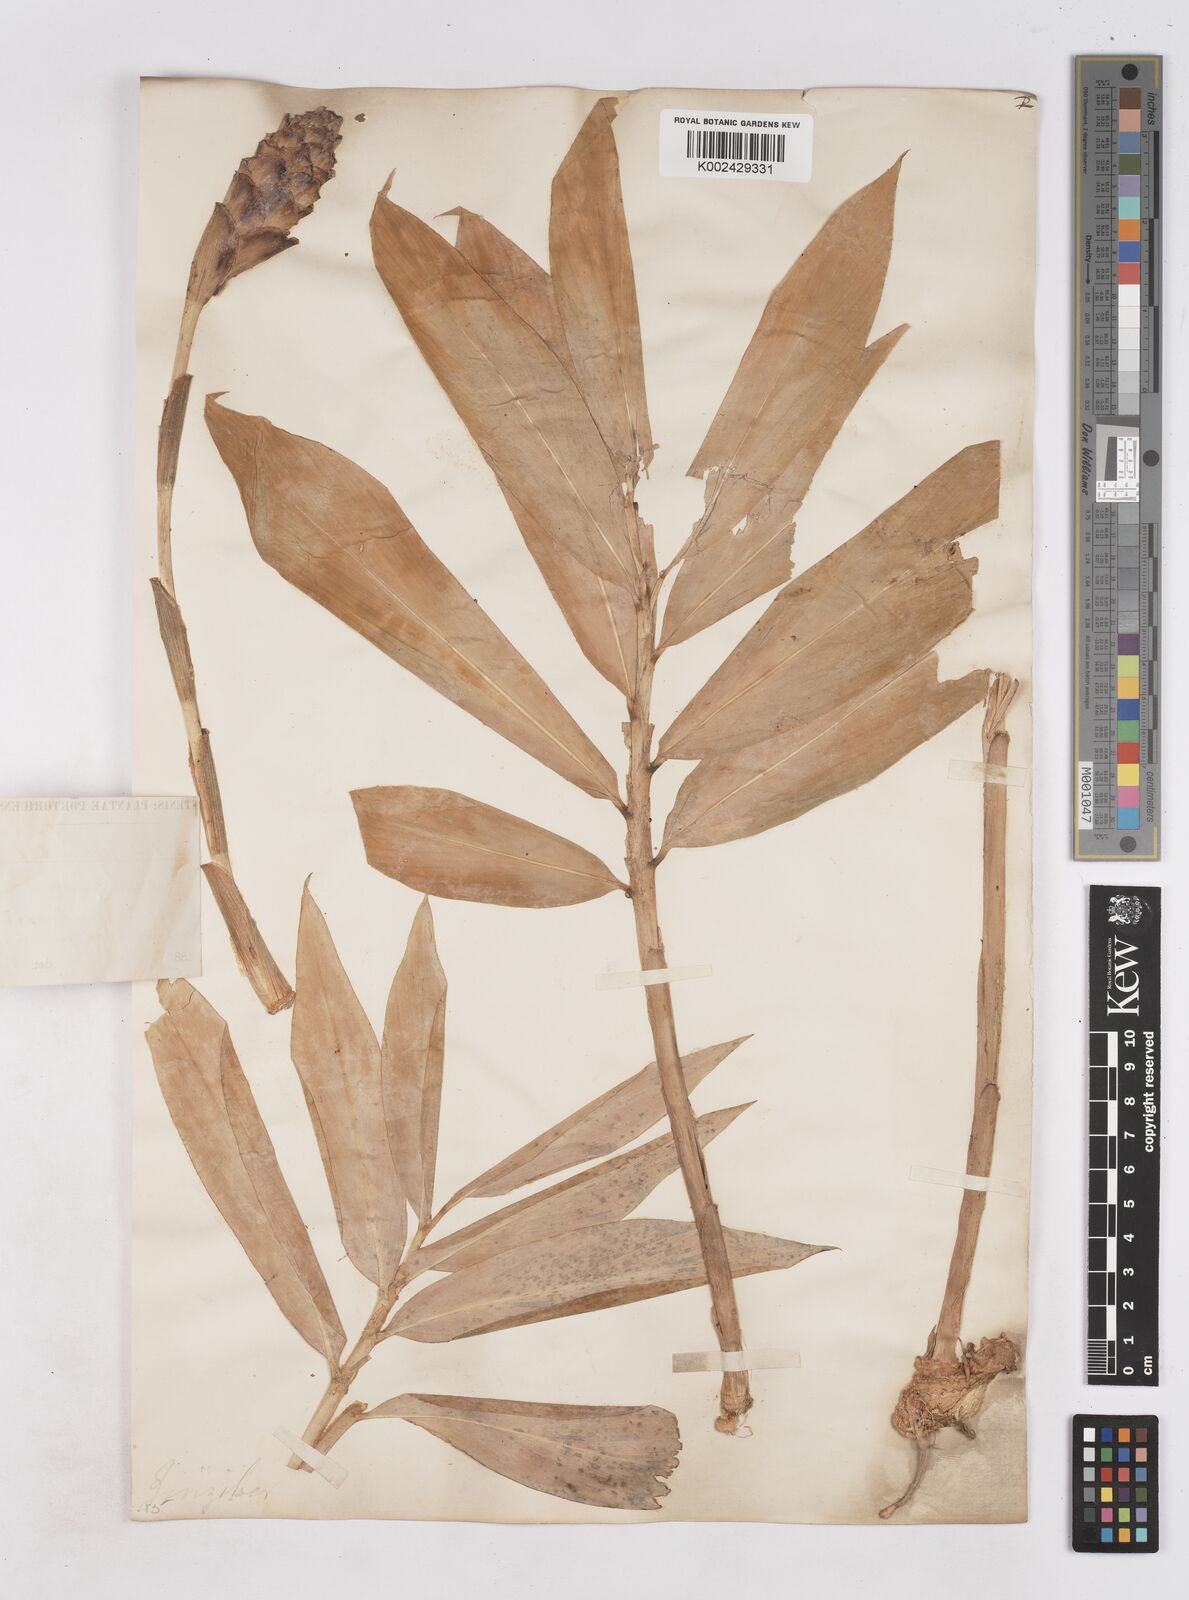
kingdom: Plantae
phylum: Tracheophyta
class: Liliopsida
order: Zingiberales
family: Zingiberaceae
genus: Zingiber
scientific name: Zingiber zerumbet
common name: Bitter ginger
